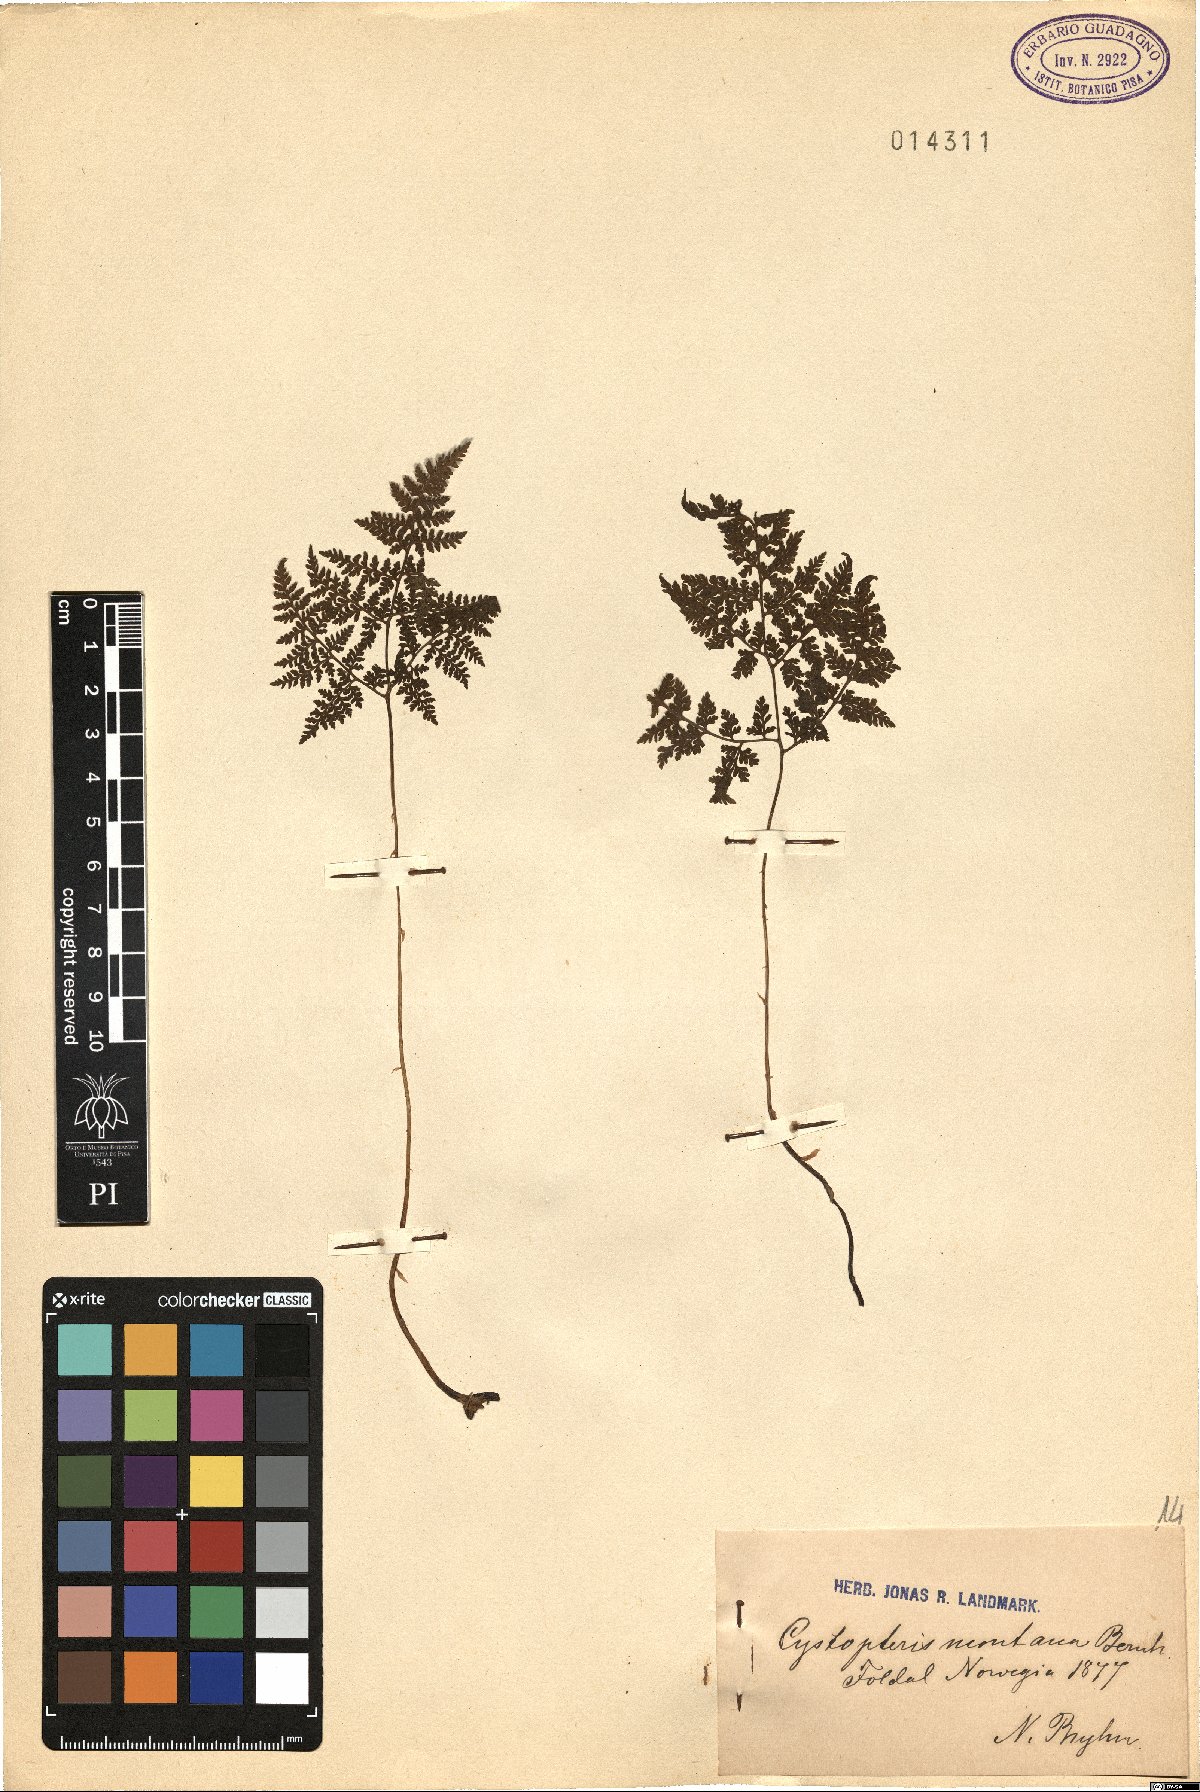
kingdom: Plantae
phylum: Tracheophyta
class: Polypodiopsida
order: Polypodiales
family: Cystopteridaceae
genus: Cystopteris
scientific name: Cystopteris montana
